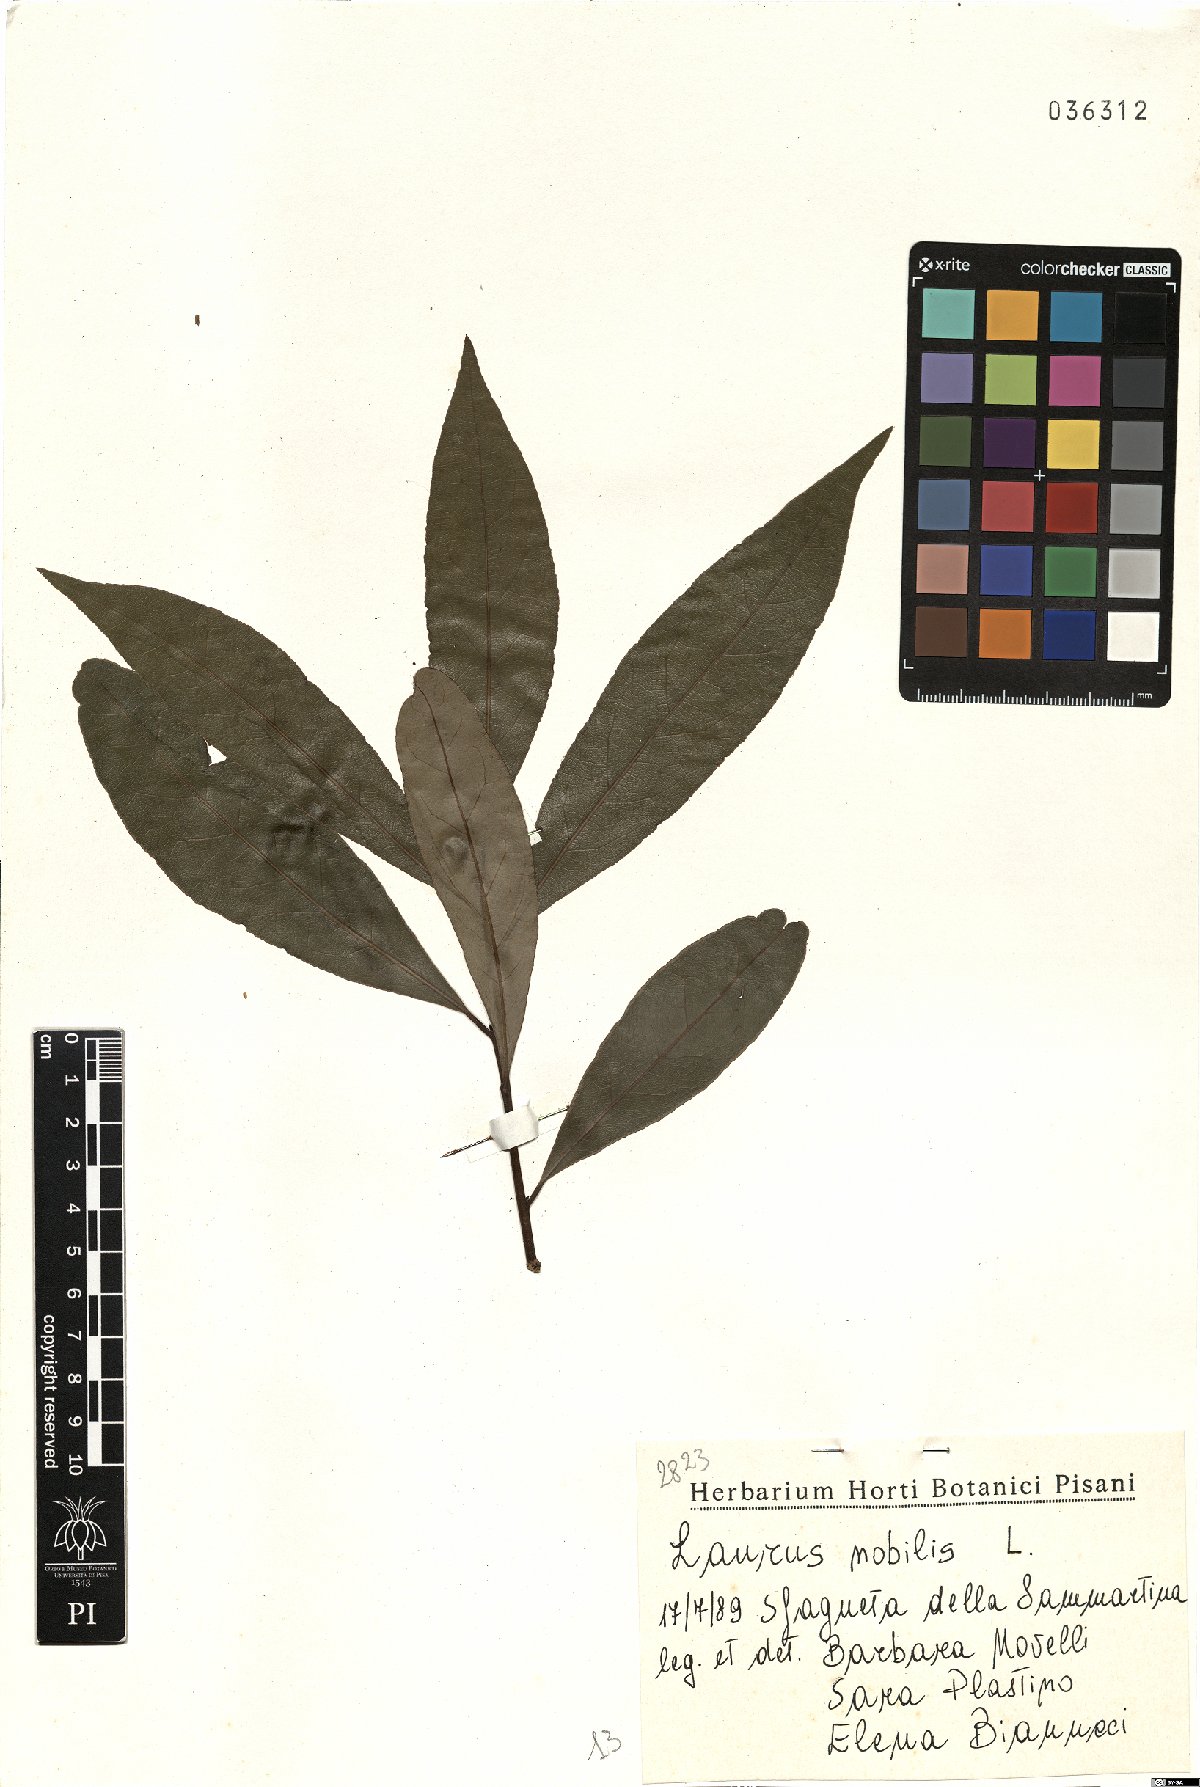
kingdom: Plantae
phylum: Tracheophyta
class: Magnoliopsida
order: Laurales
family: Lauraceae
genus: Laurus
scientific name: Laurus nobilis
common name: Bay
